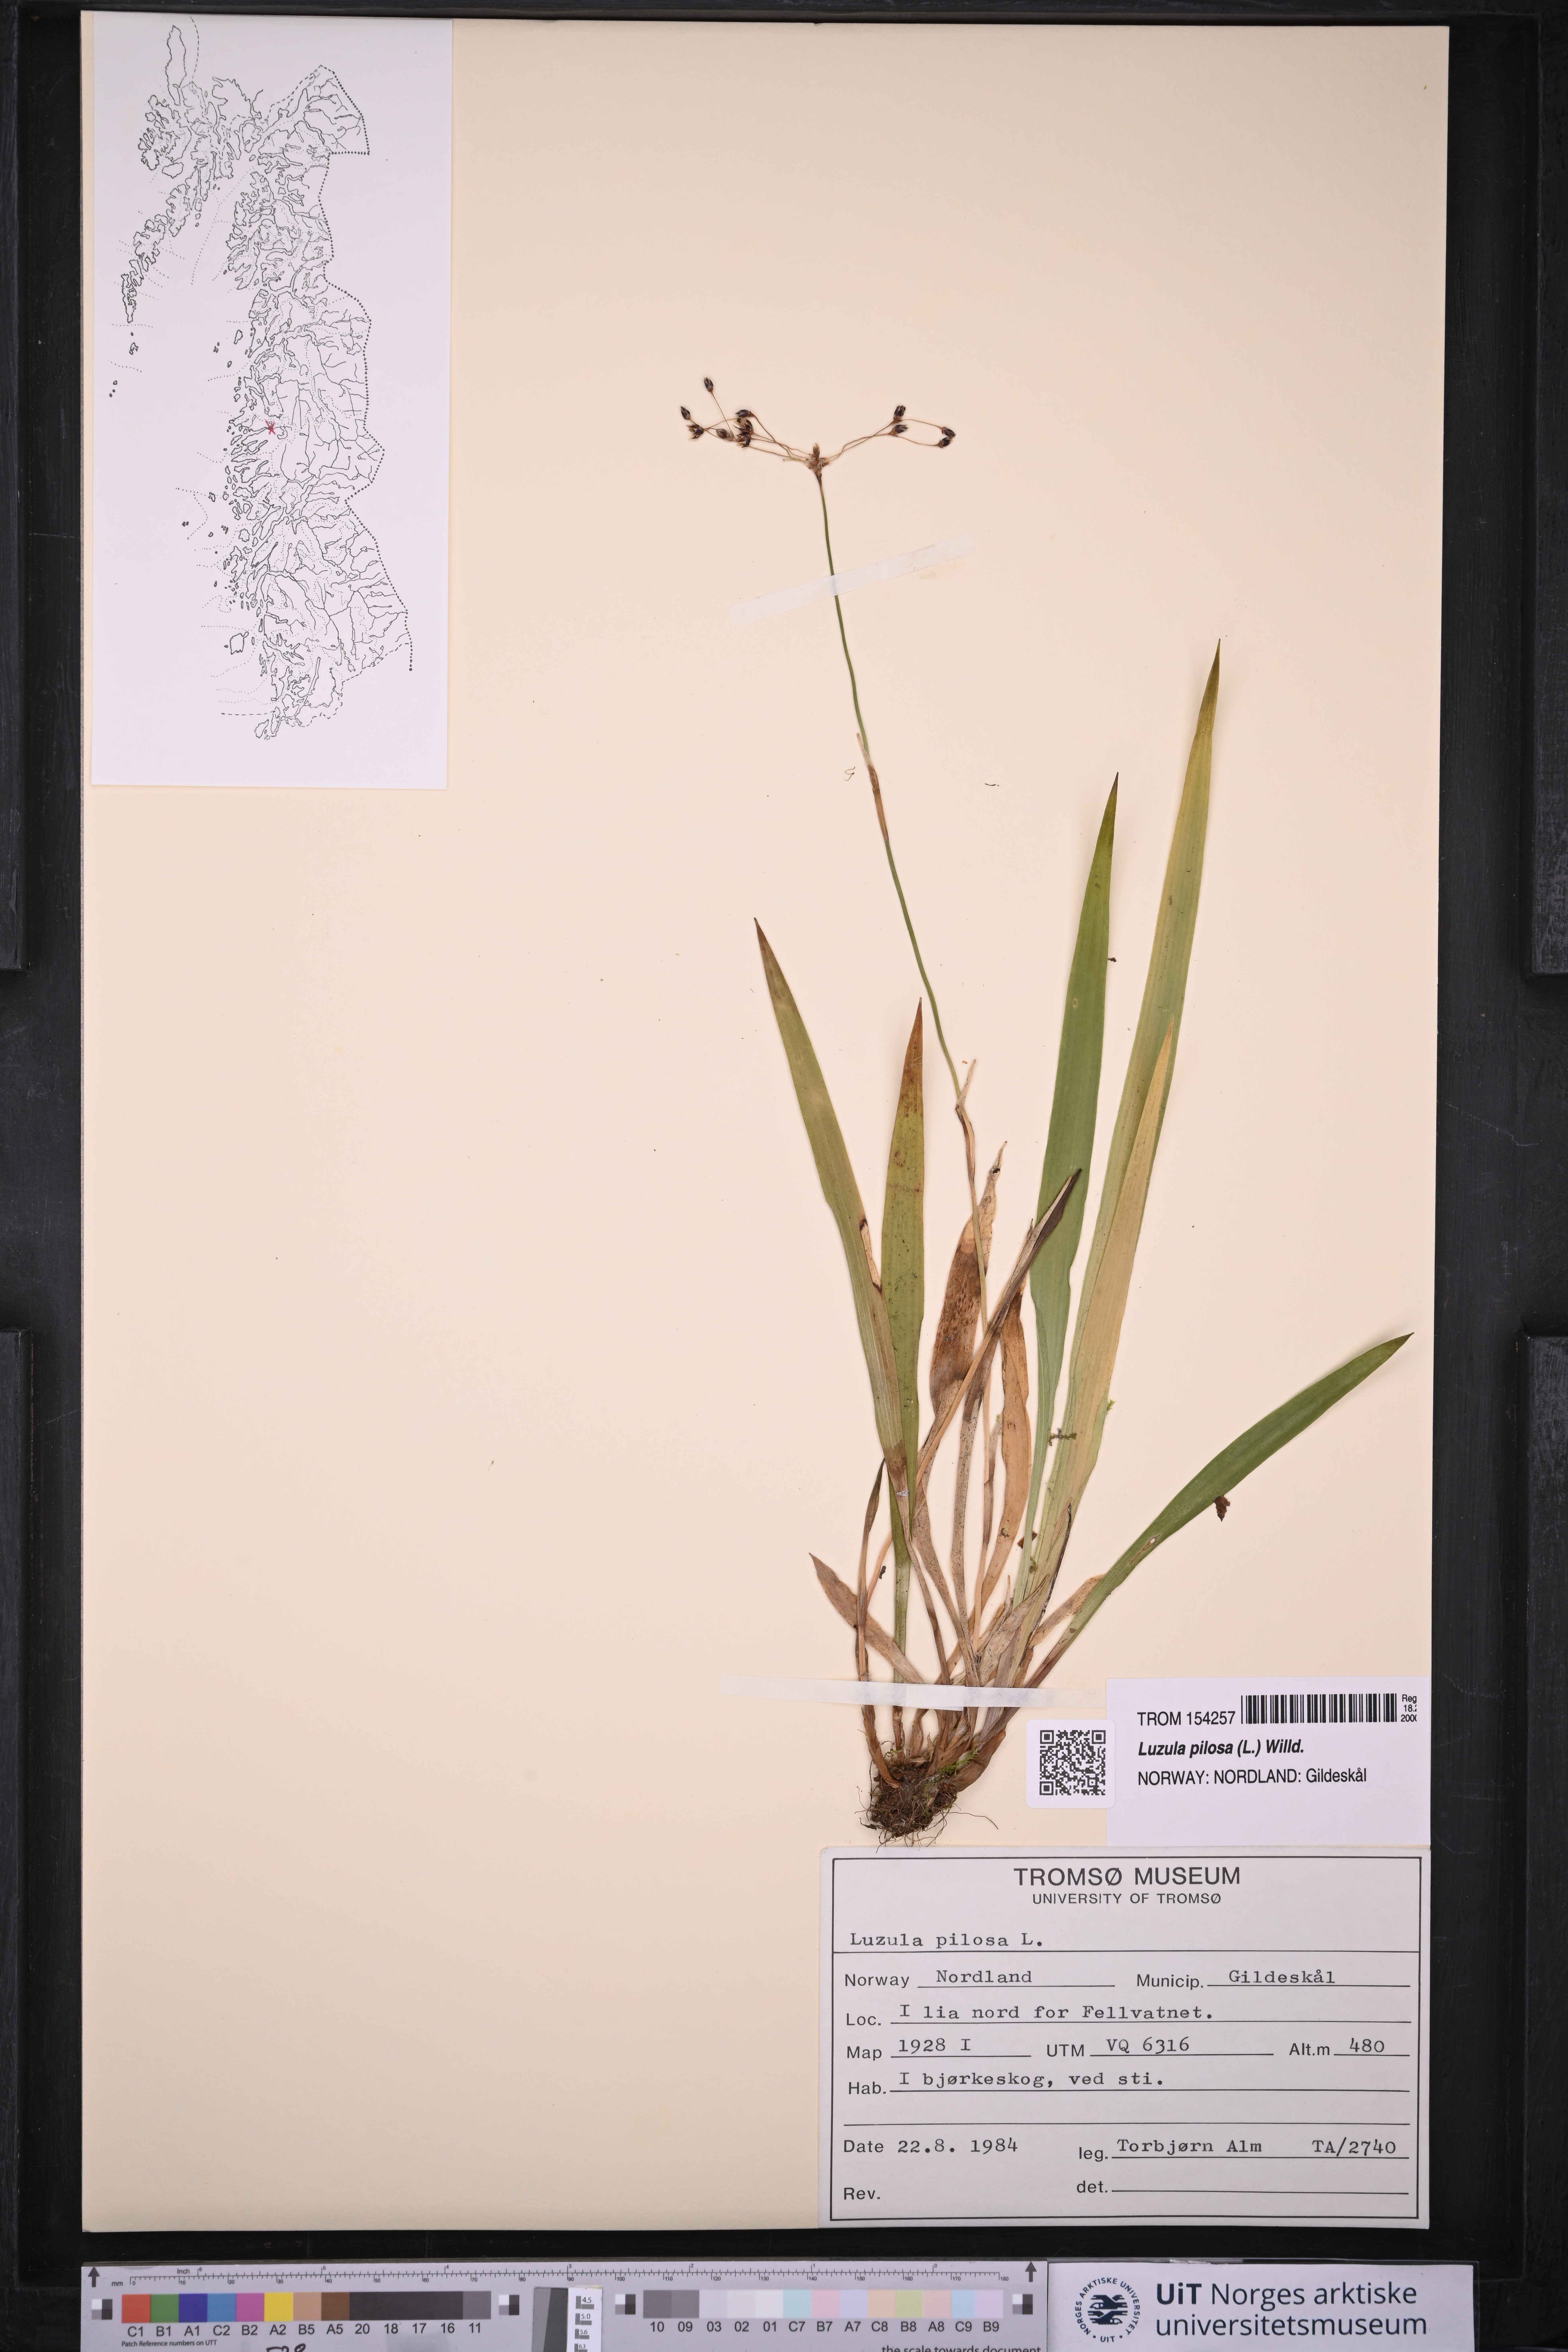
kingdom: Plantae
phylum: Tracheophyta
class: Liliopsida
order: Poales
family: Juncaceae
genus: Luzula
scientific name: Luzula pilosa
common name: Hairy wood-rush
